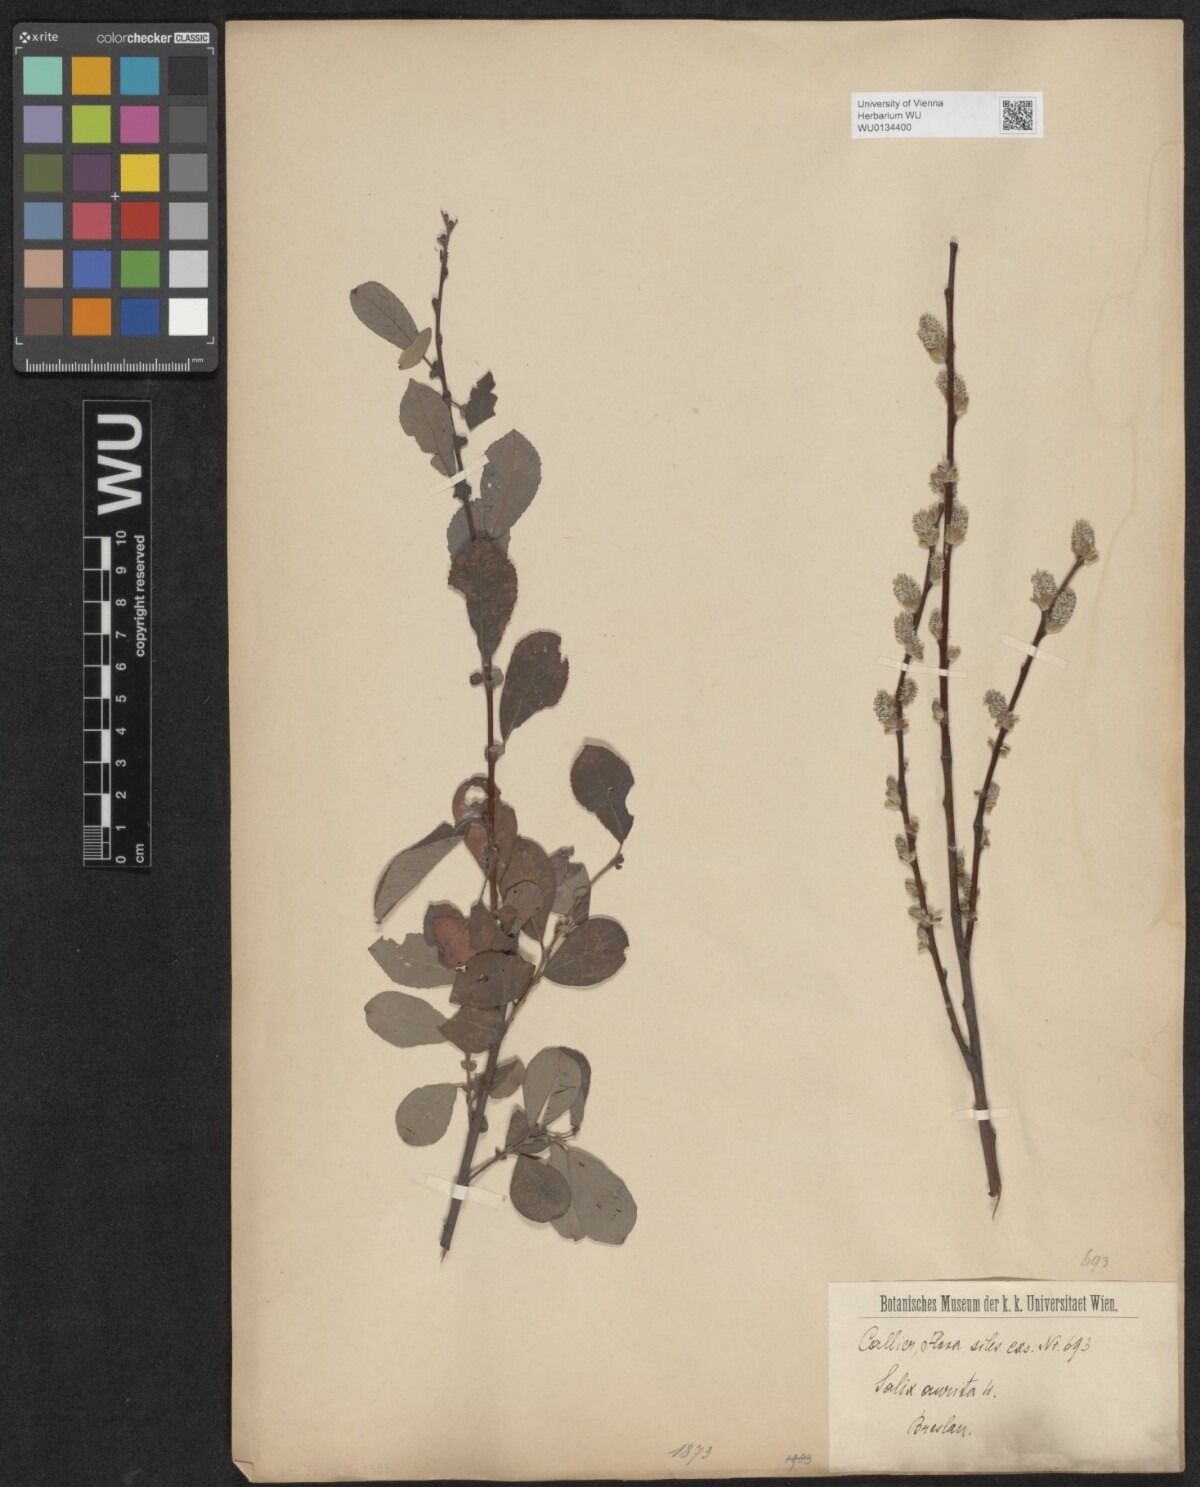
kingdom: Plantae
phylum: Tracheophyta
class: Magnoliopsida
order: Malpighiales
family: Salicaceae
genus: Salix
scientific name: Salix aurita
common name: Eared willow
